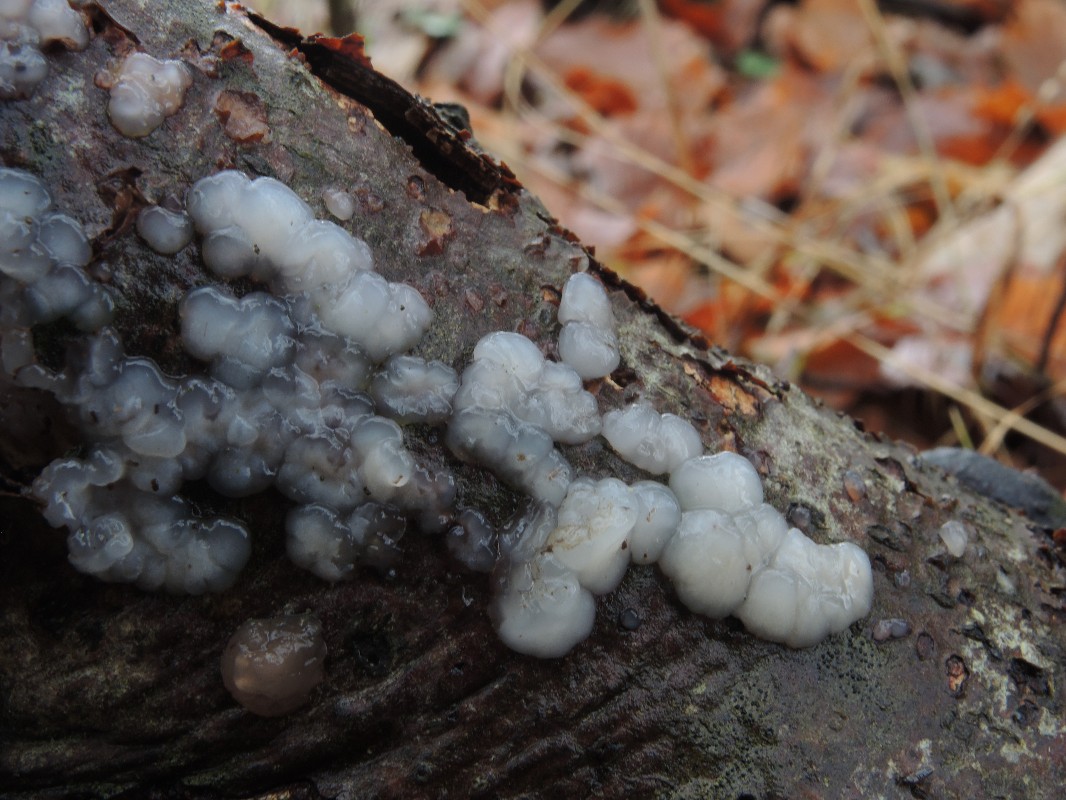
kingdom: Fungi
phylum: Basidiomycota
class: Agaricomycetes
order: Auriculariales
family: Auriculariaceae
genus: Exidia
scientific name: Exidia thuretiana
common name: hvidlig bævretop
